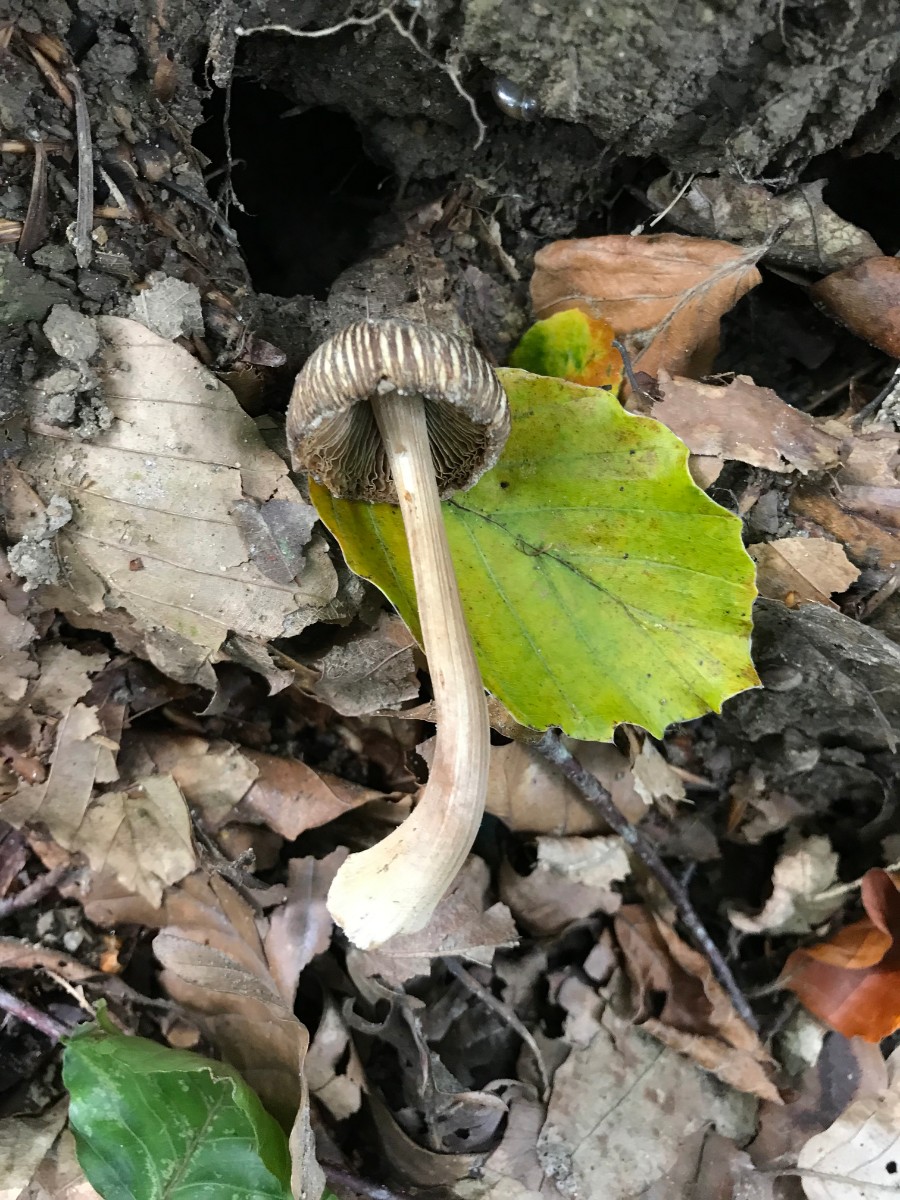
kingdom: Fungi
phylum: Basidiomycota
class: Agaricomycetes
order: Agaricales
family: Inocybaceae
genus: Inocybe
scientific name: Inocybe asterospora
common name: stjernesporet trævlhat
